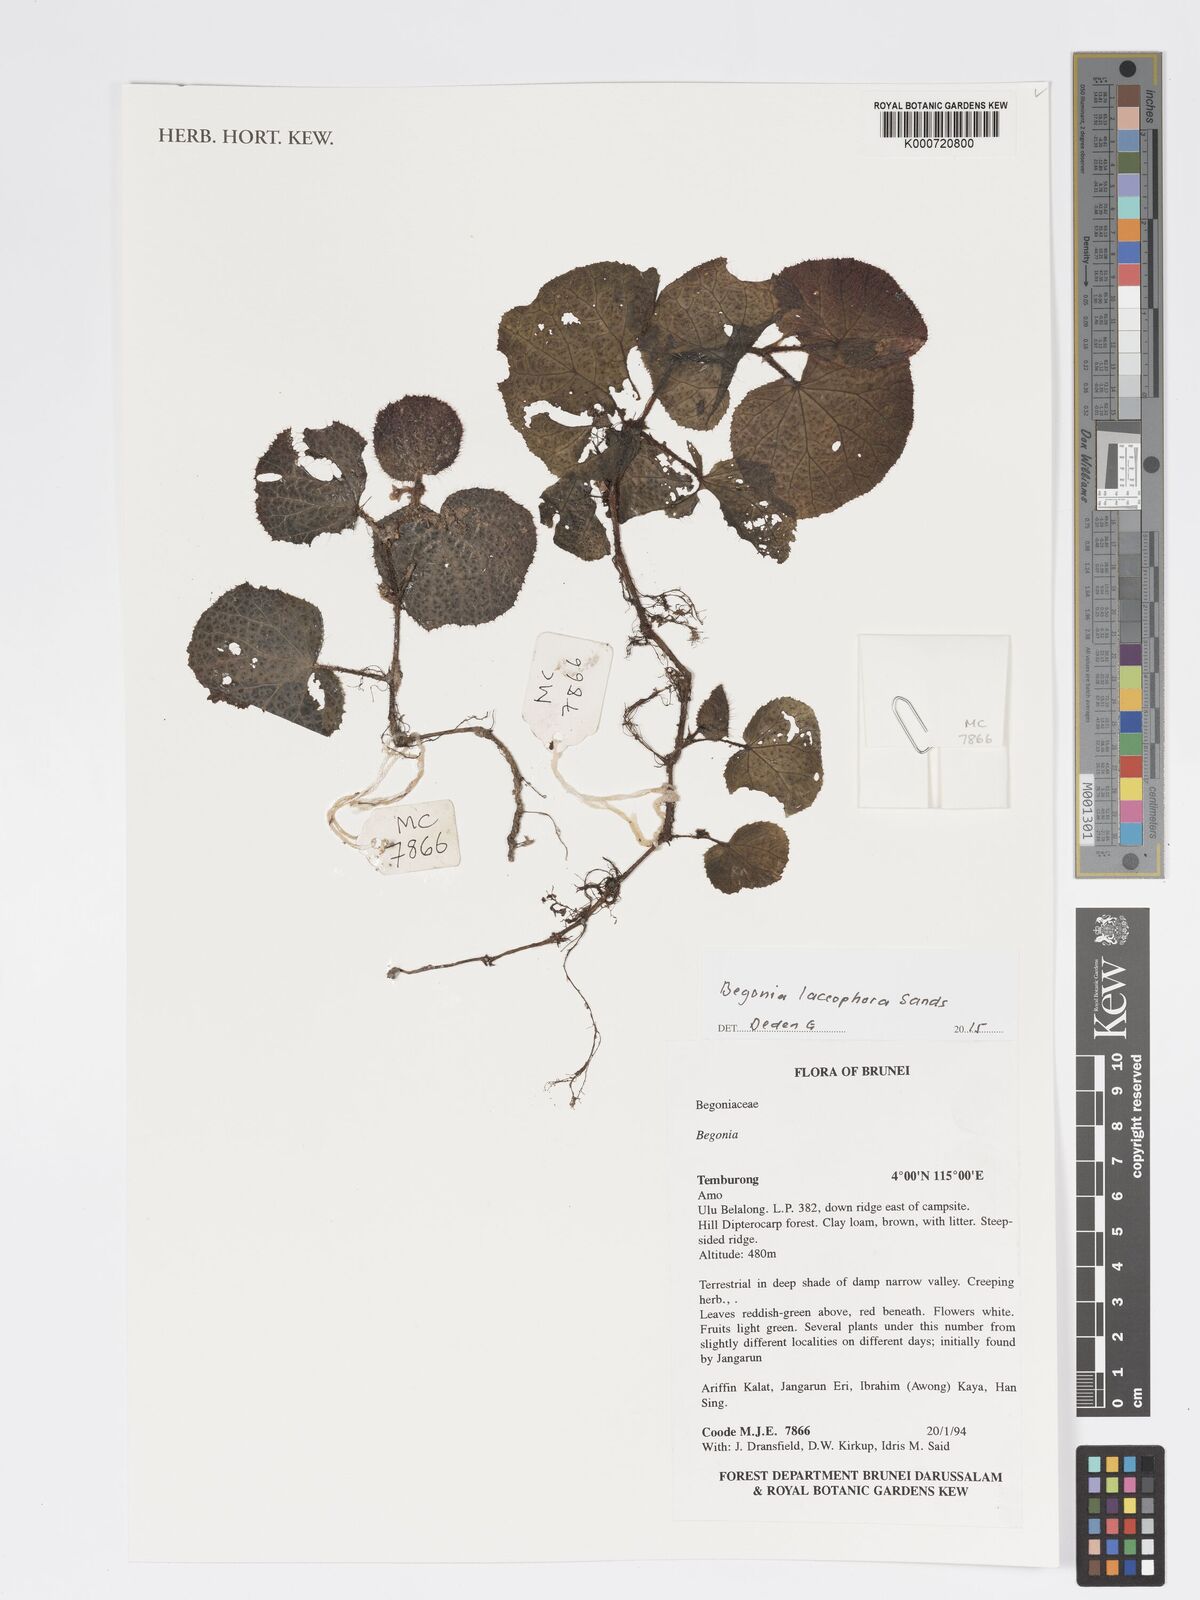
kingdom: Plantae
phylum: Tracheophyta
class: Magnoliopsida
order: Cucurbitales
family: Begoniaceae
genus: Begonia
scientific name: Begonia laccophora
